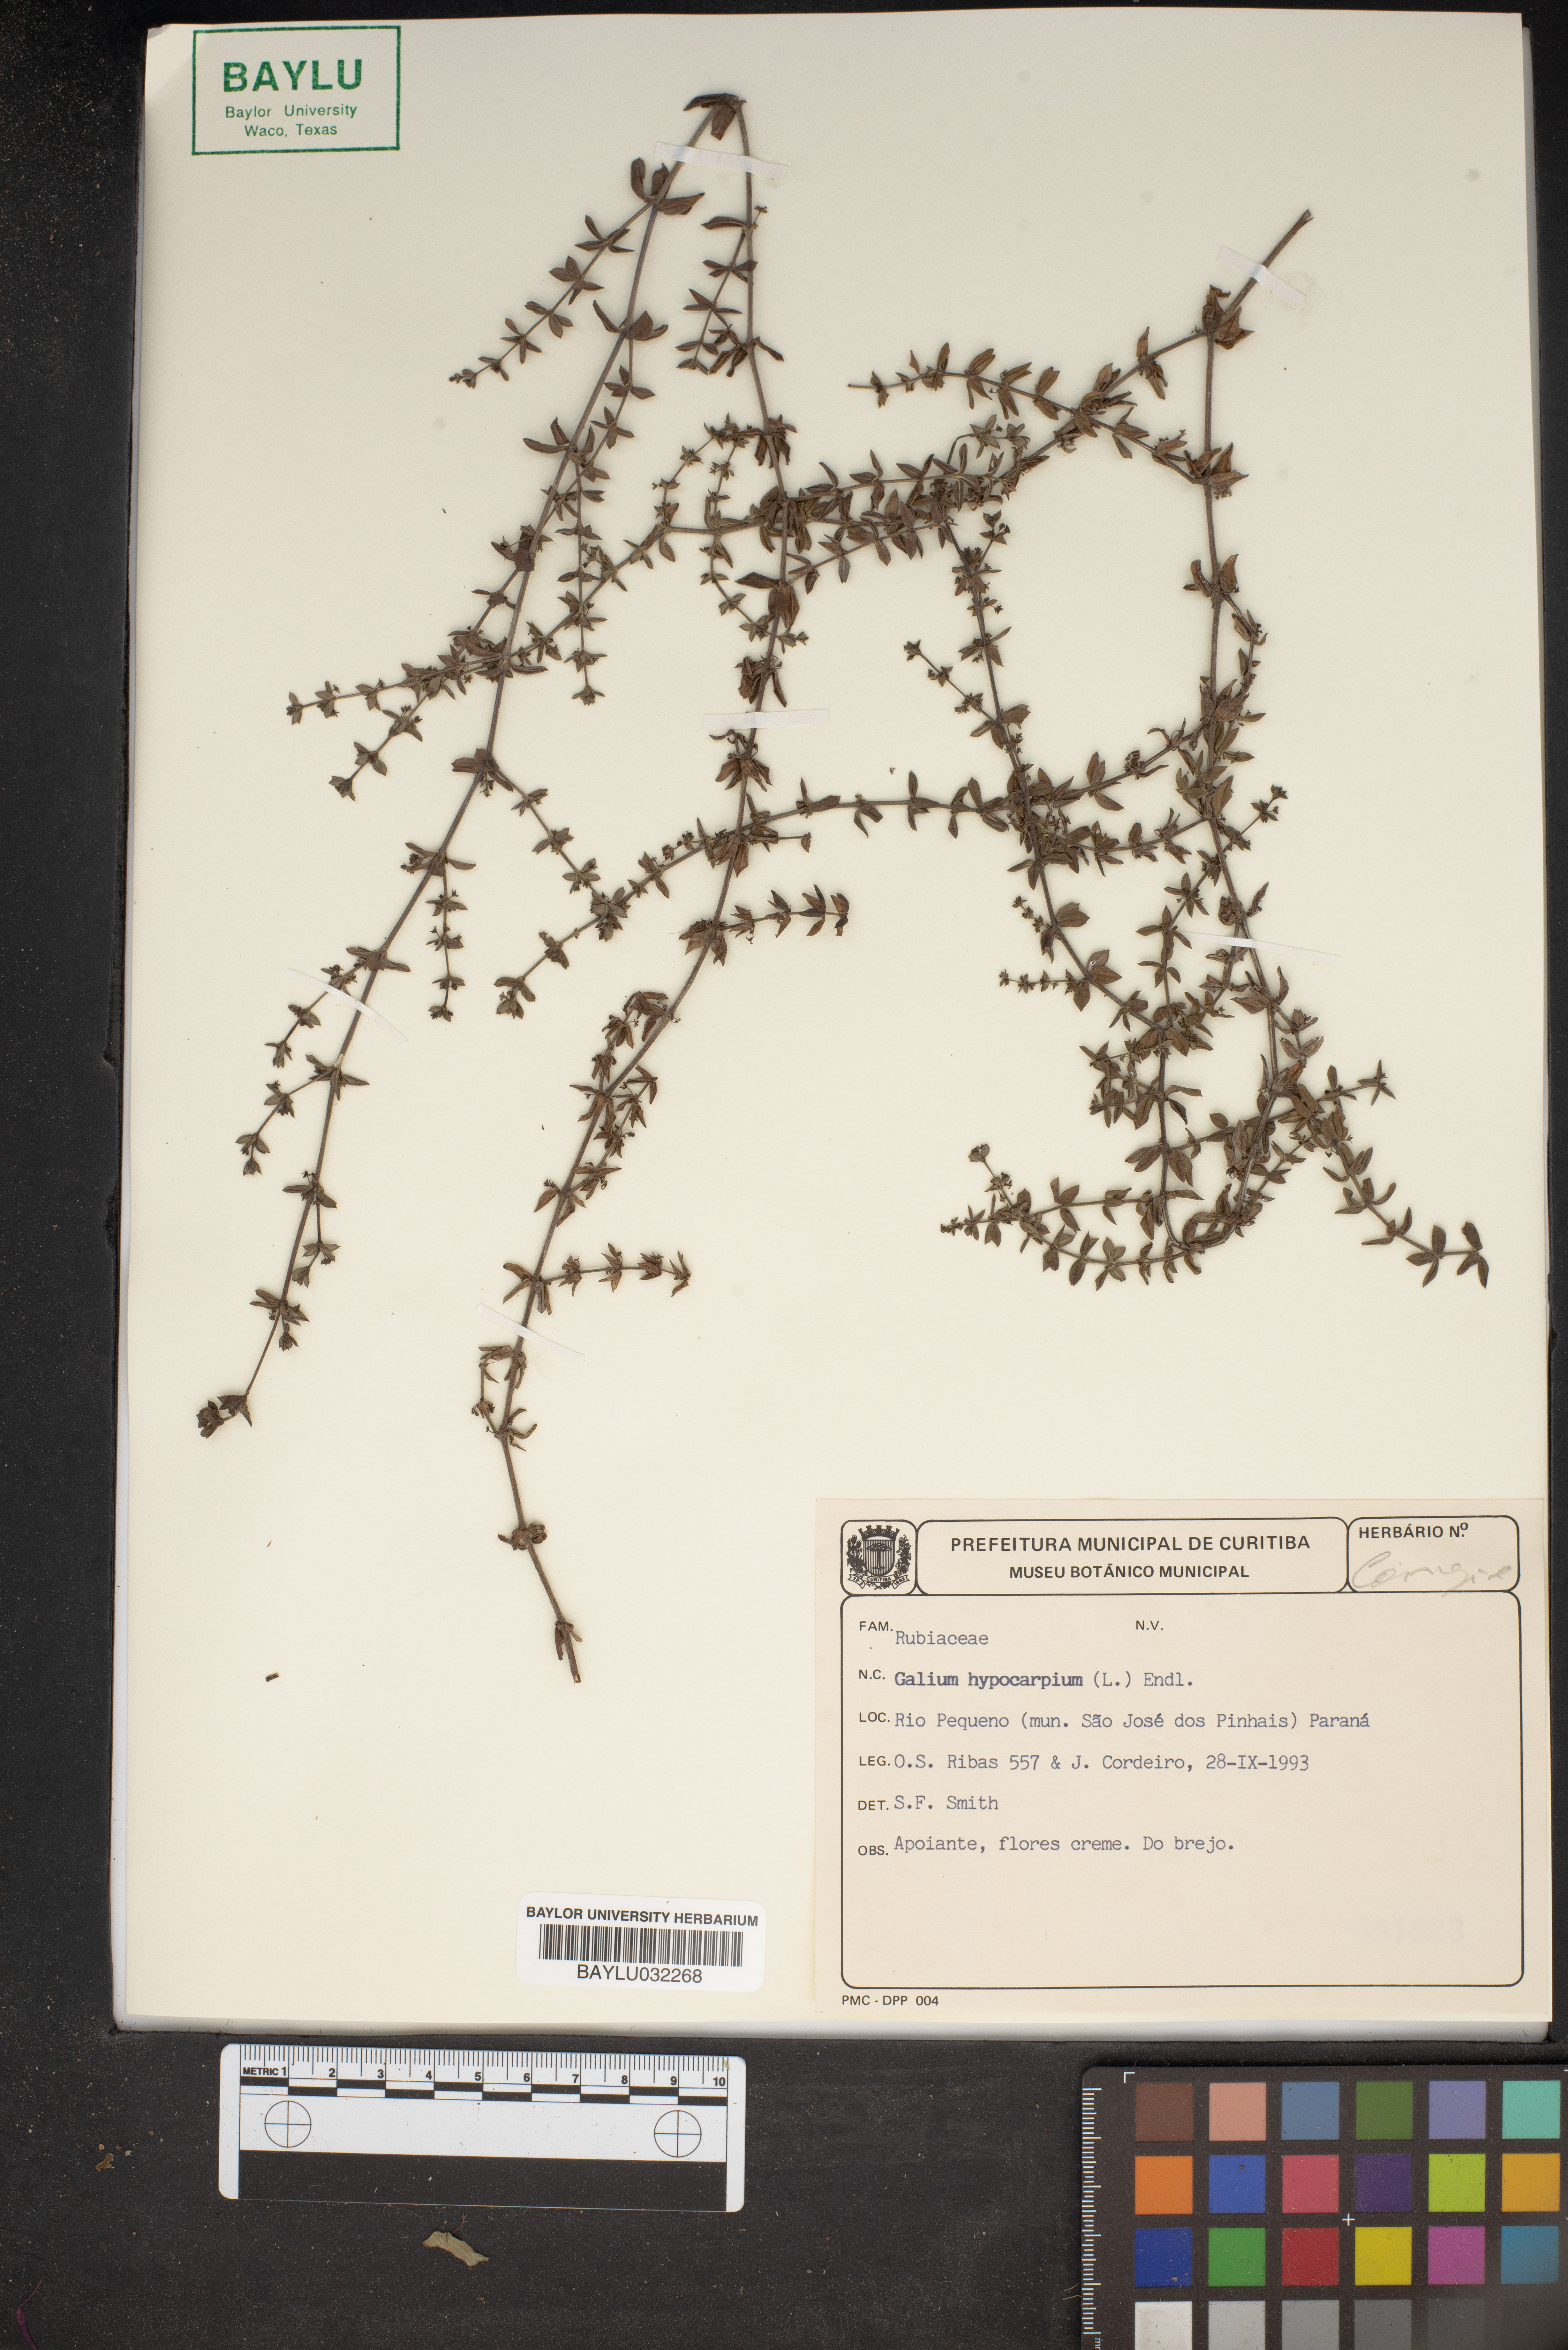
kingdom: Plantae
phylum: Tracheophyta
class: Magnoliopsida
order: Gentianales
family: Rubiaceae
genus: Galium
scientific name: Galium hypocarpium
